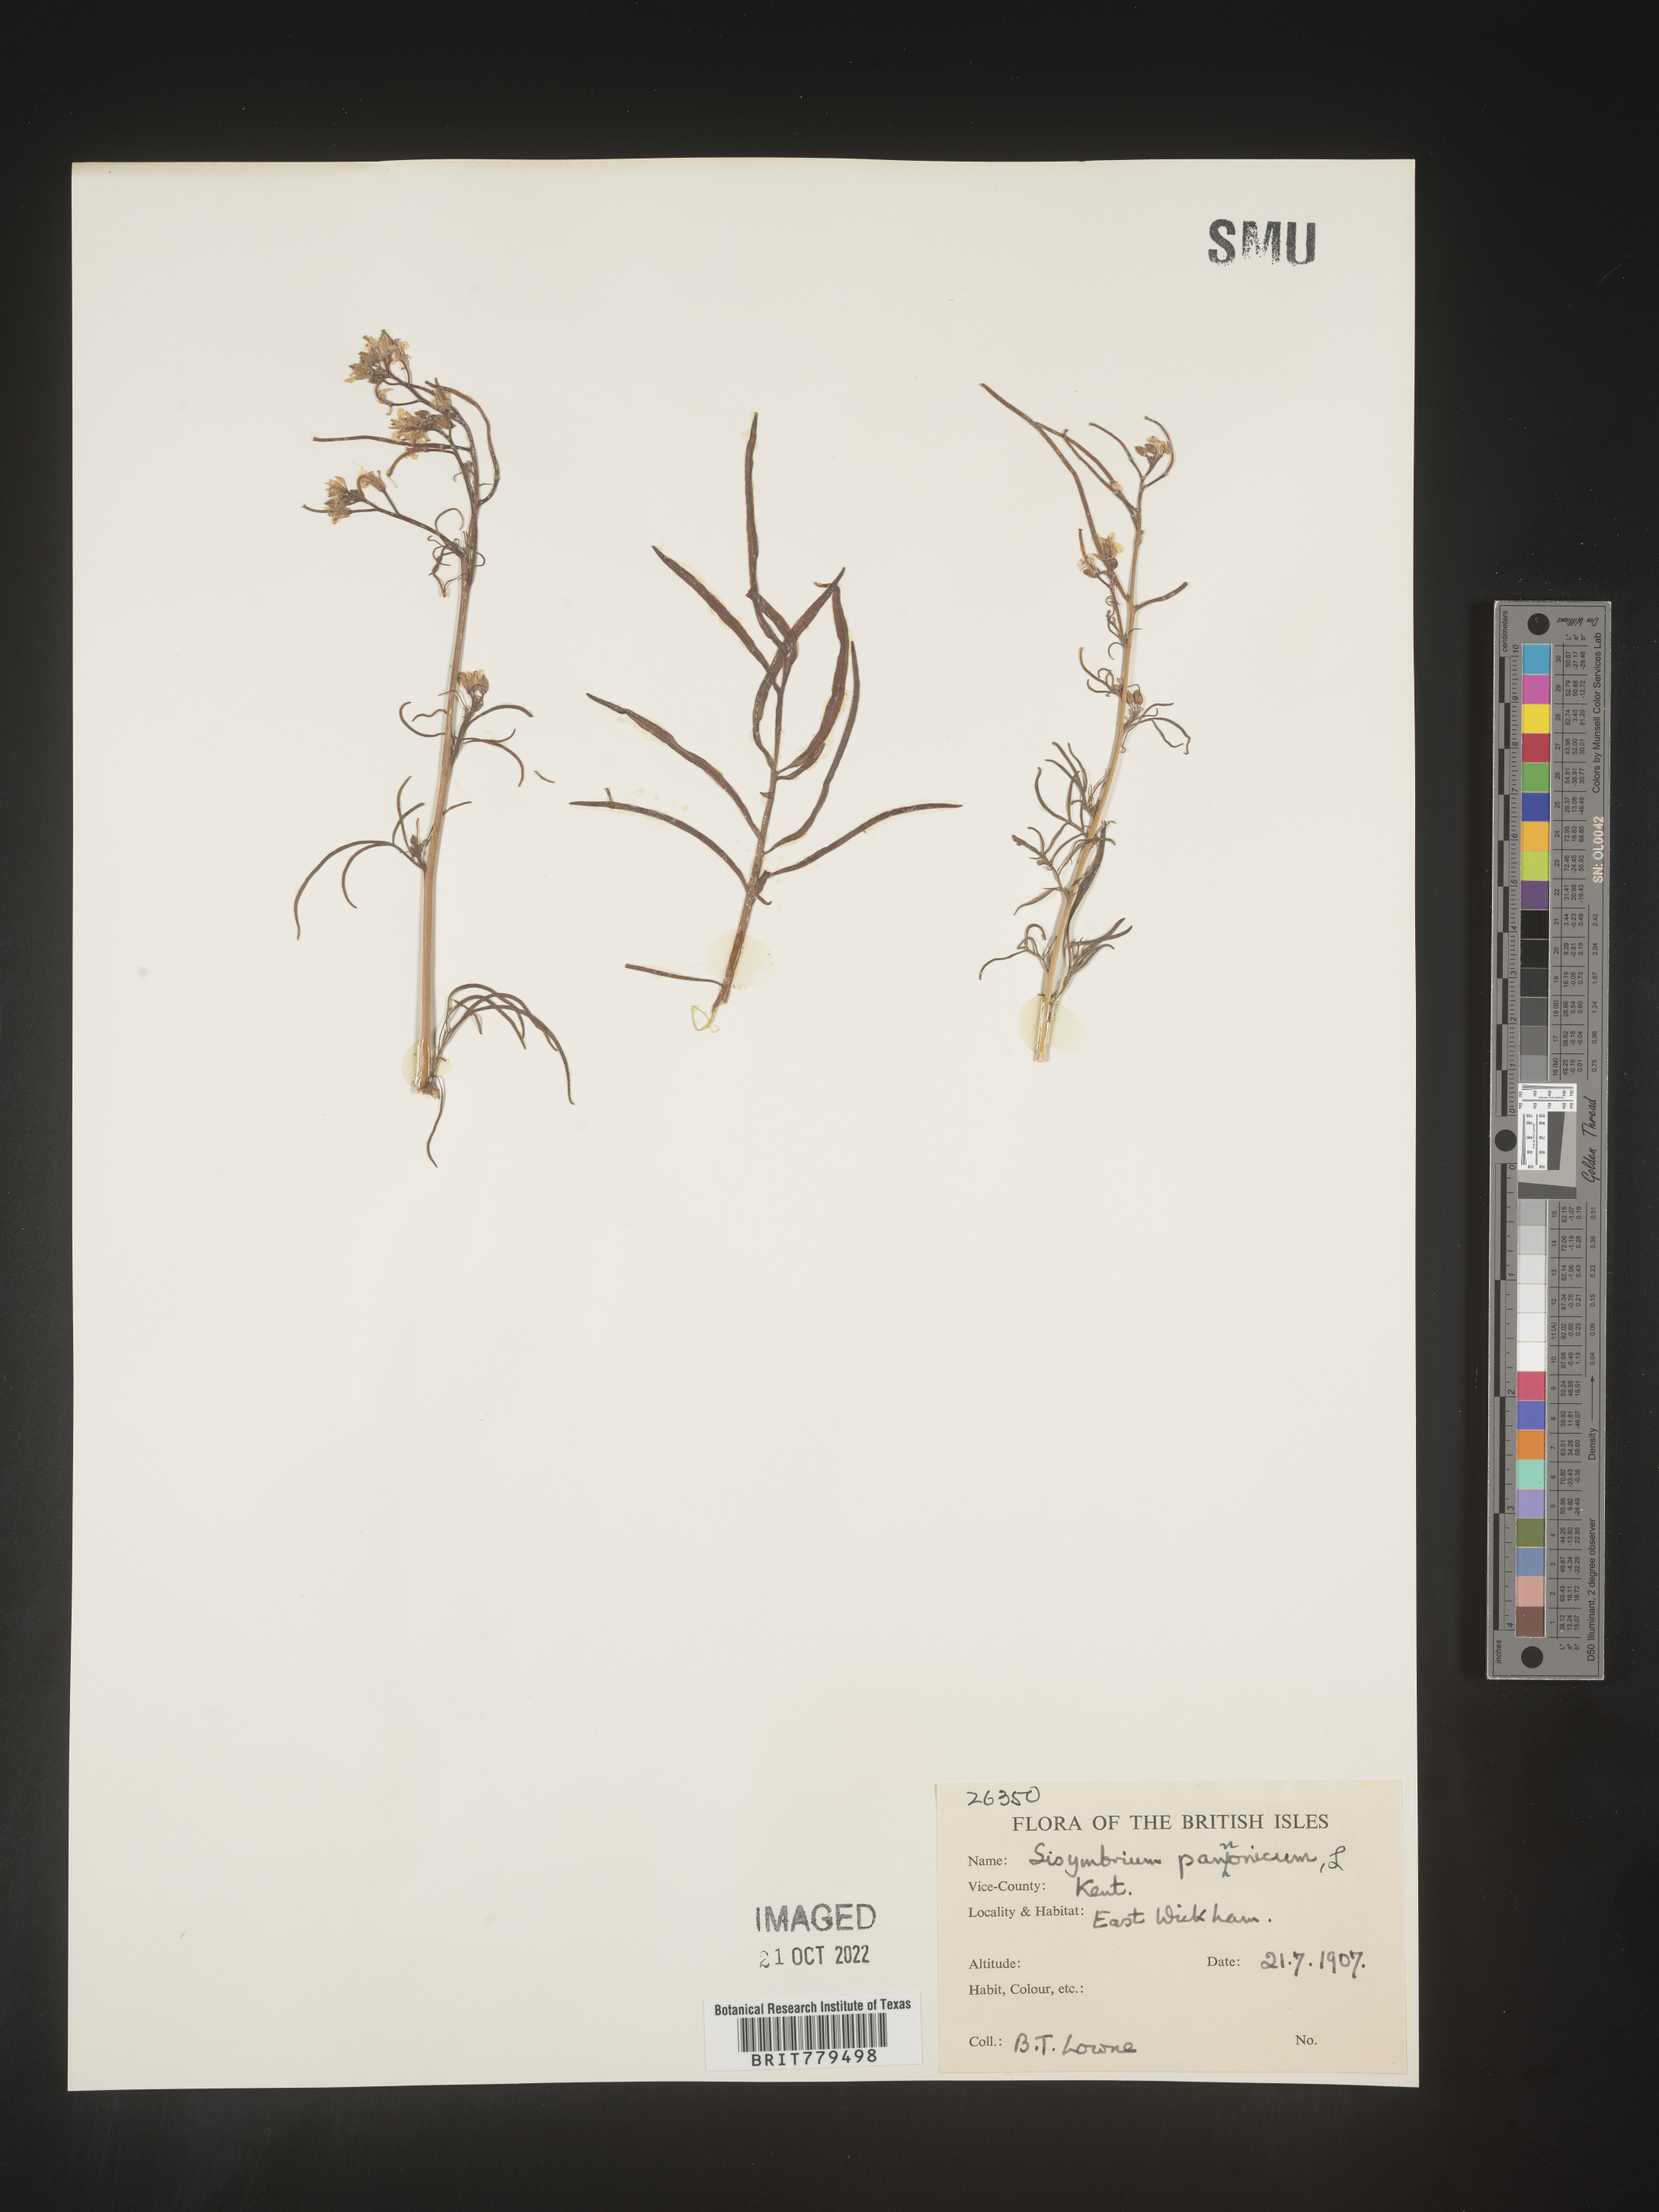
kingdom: Plantae
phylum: Tracheophyta
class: Magnoliopsida
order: Brassicales
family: Brassicaceae
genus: Sisymbrium
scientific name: Sisymbrium
